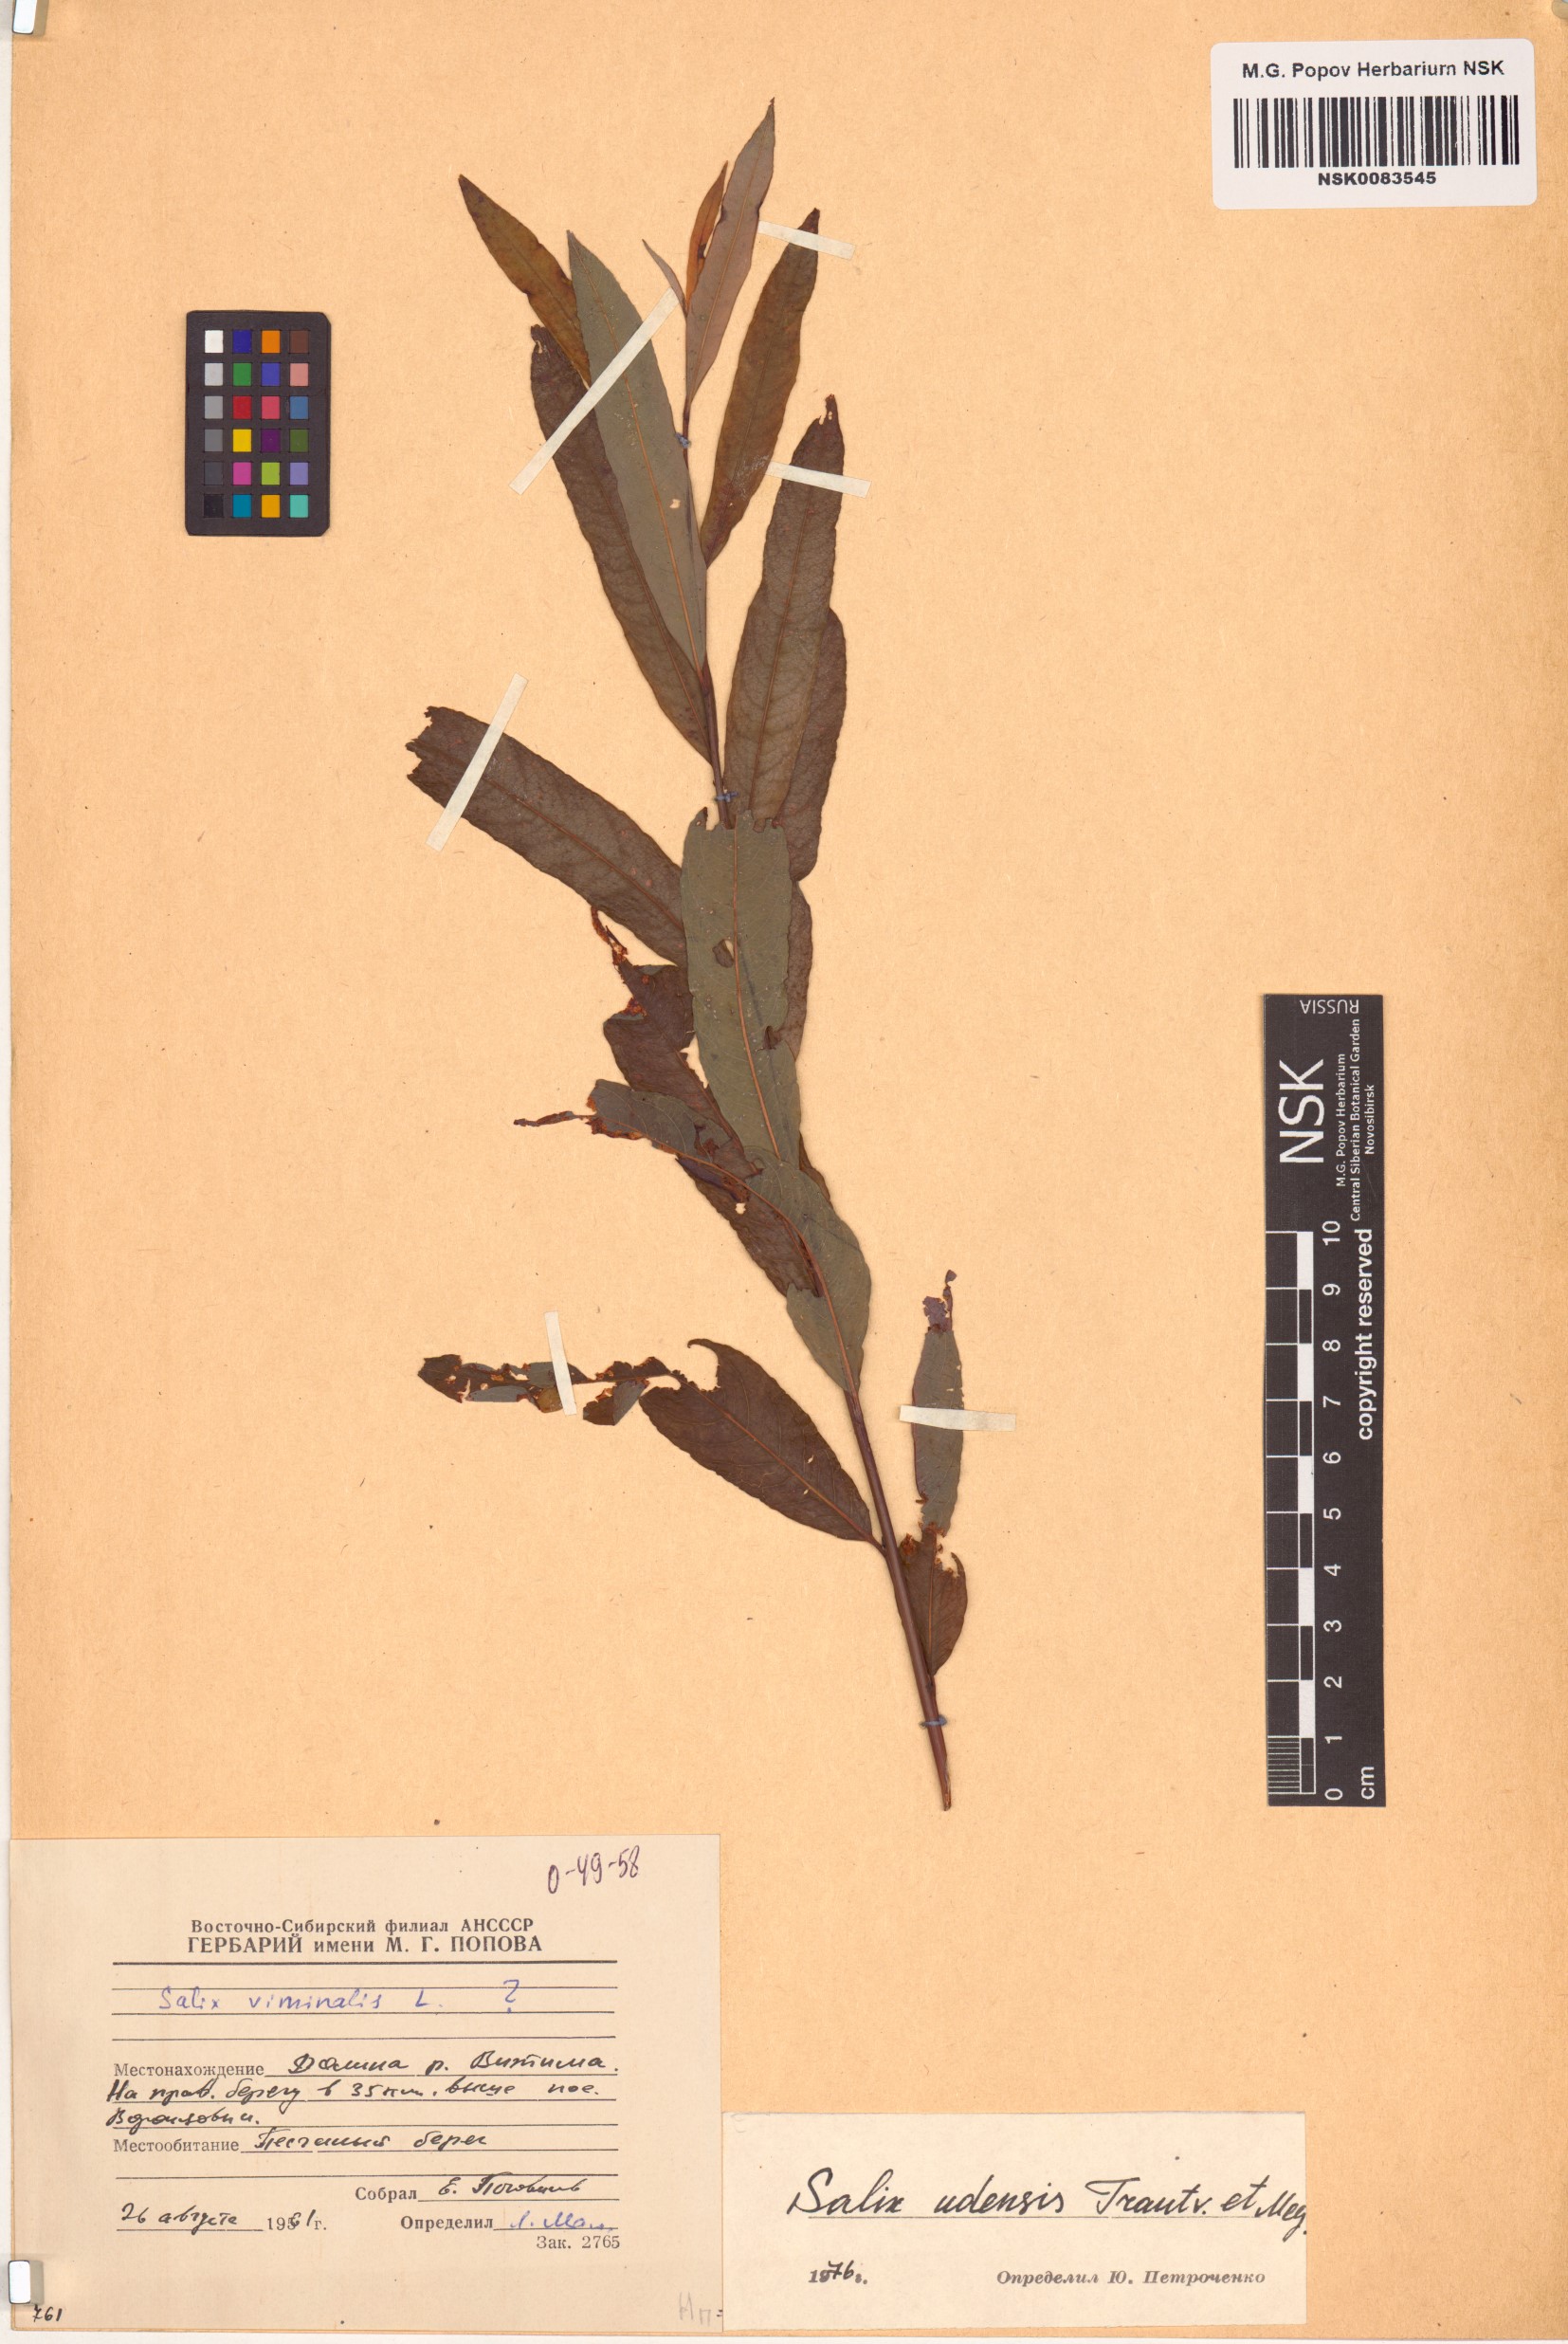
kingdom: Plantae
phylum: Tracheophyta
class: Magnoliopsida
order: Malpighiales
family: Salicaceae
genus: Salix
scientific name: Salix udensis
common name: Sachalin willow
